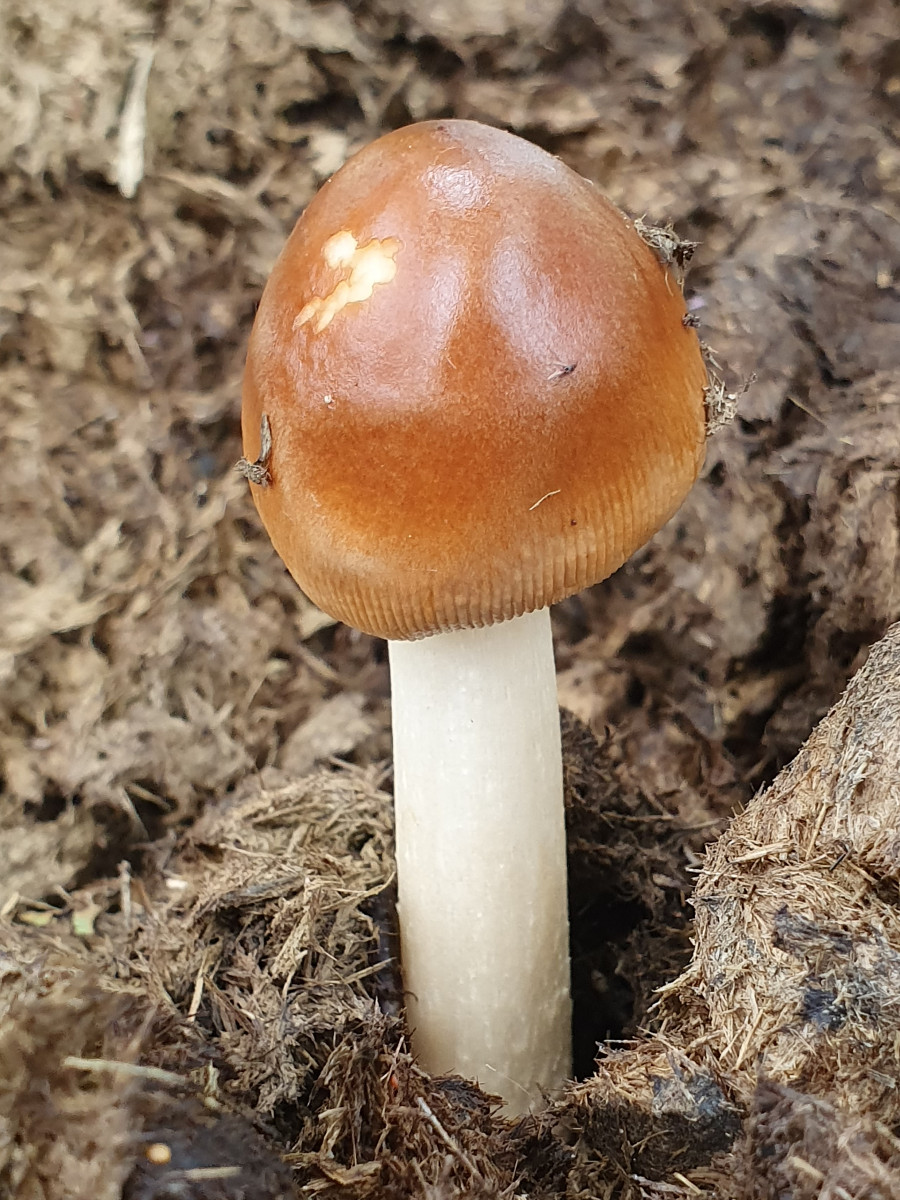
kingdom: Fungi
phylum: Basidiomycota
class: Agaricomycetes
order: Agaricales
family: Amanitaceae
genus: Amanita
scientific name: Amanita fulva
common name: brun kam-fluesvamp
